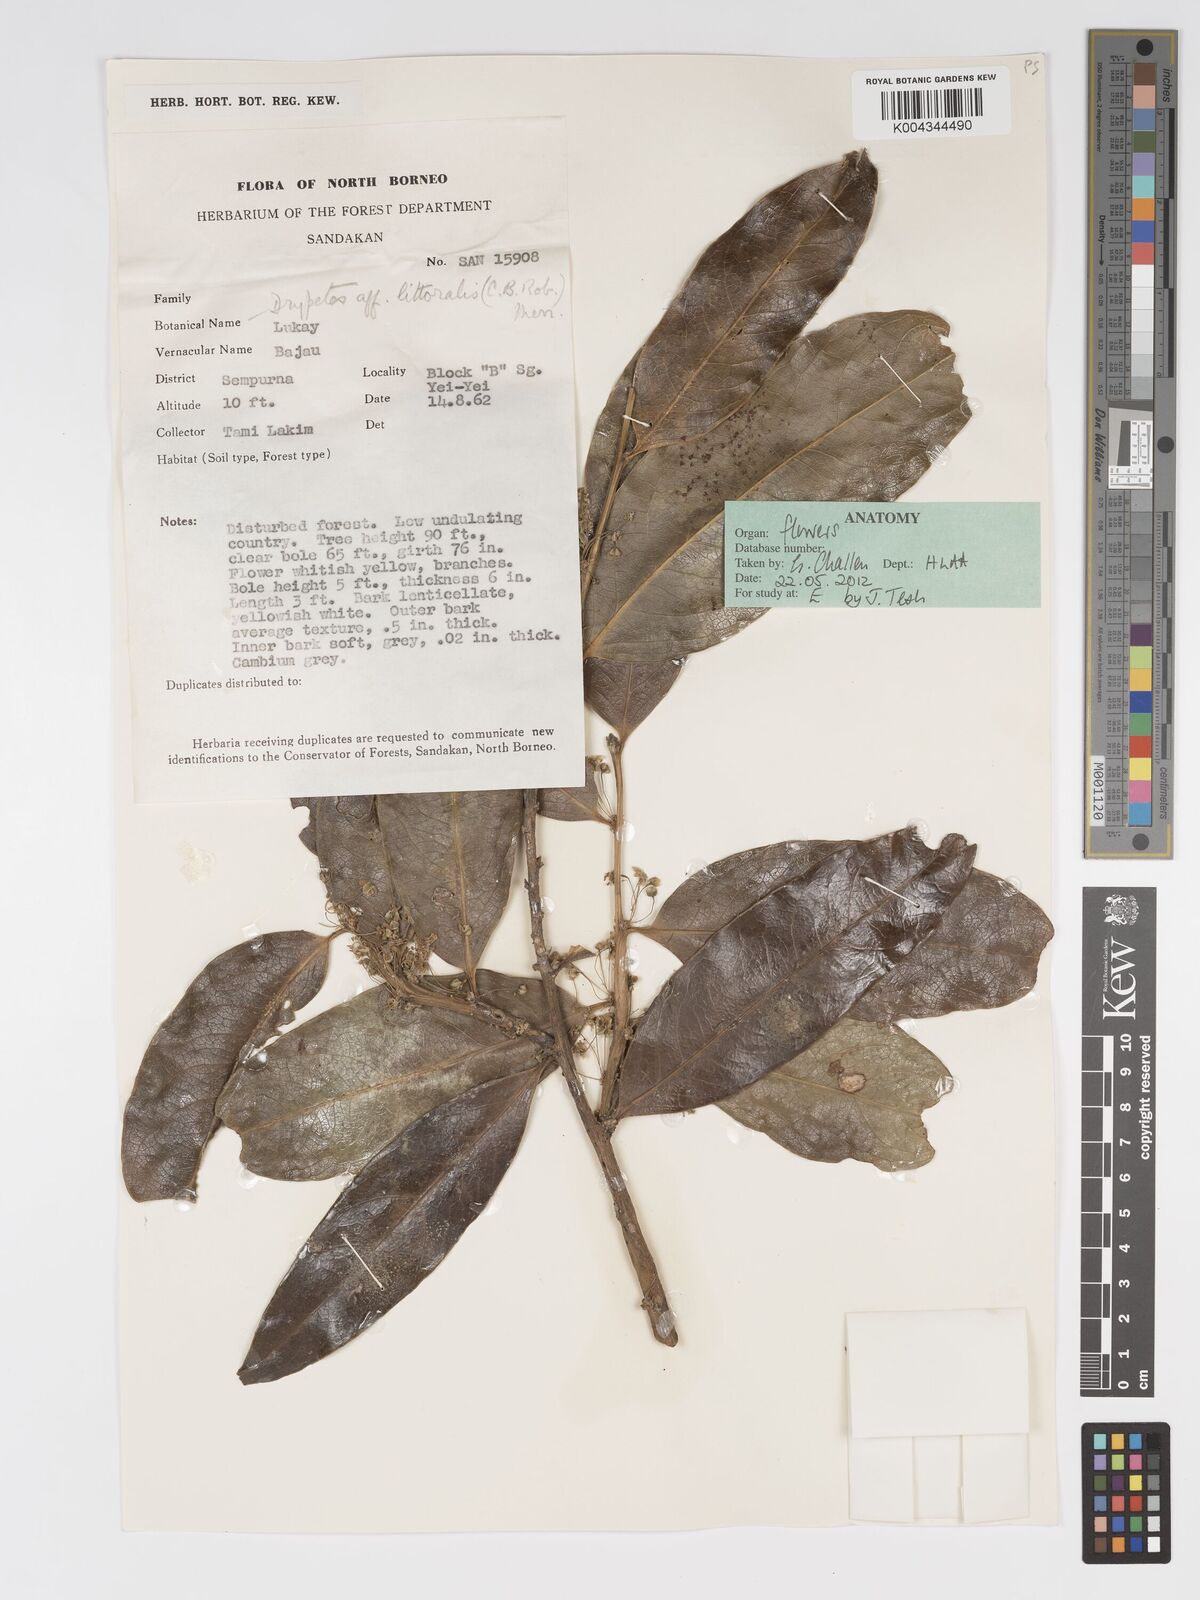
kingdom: Plantae
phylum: Tracheophyta
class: Magnoliopsida
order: Malpighiales
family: Putranjivaceae
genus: Drypetes
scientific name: Drypetes littoralis
